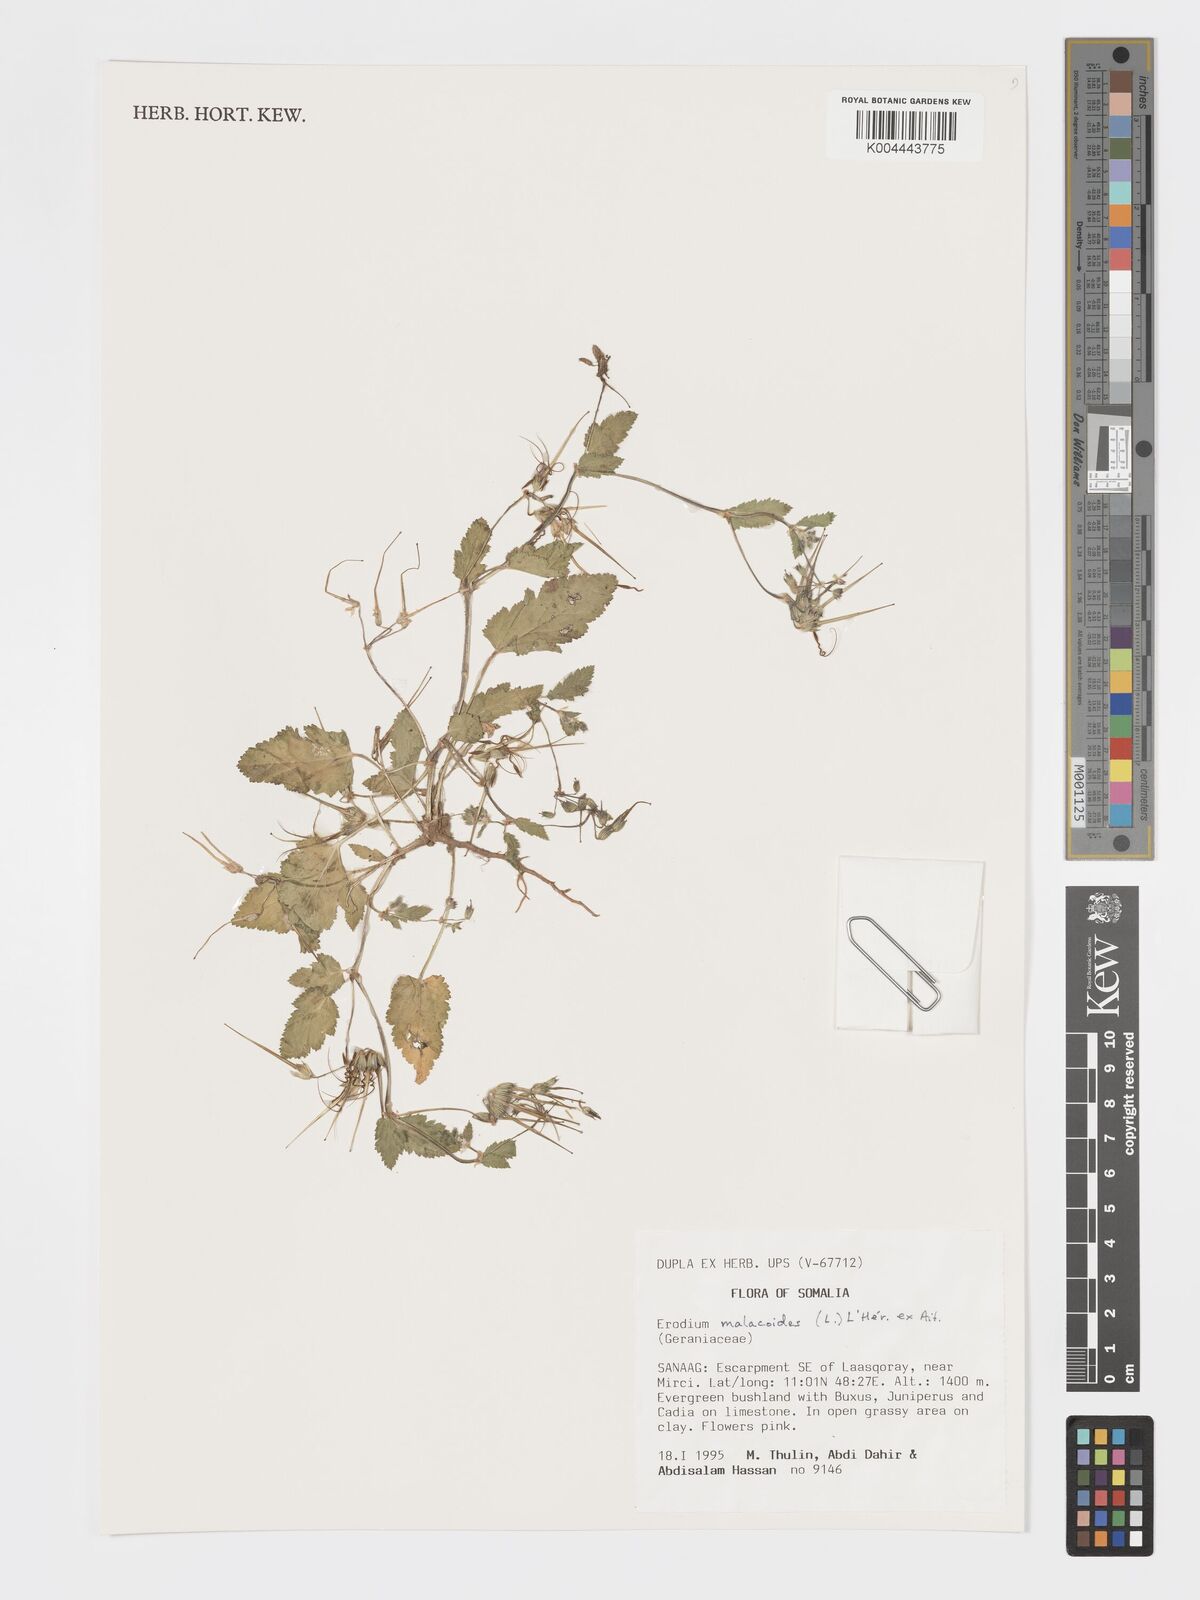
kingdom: Plantae
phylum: Tracheophyta
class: Magnoliopsida
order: Geraniales
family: Geraniaceae
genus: Erodium
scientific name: Erodium malacoides
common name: Soft stork's-bill
